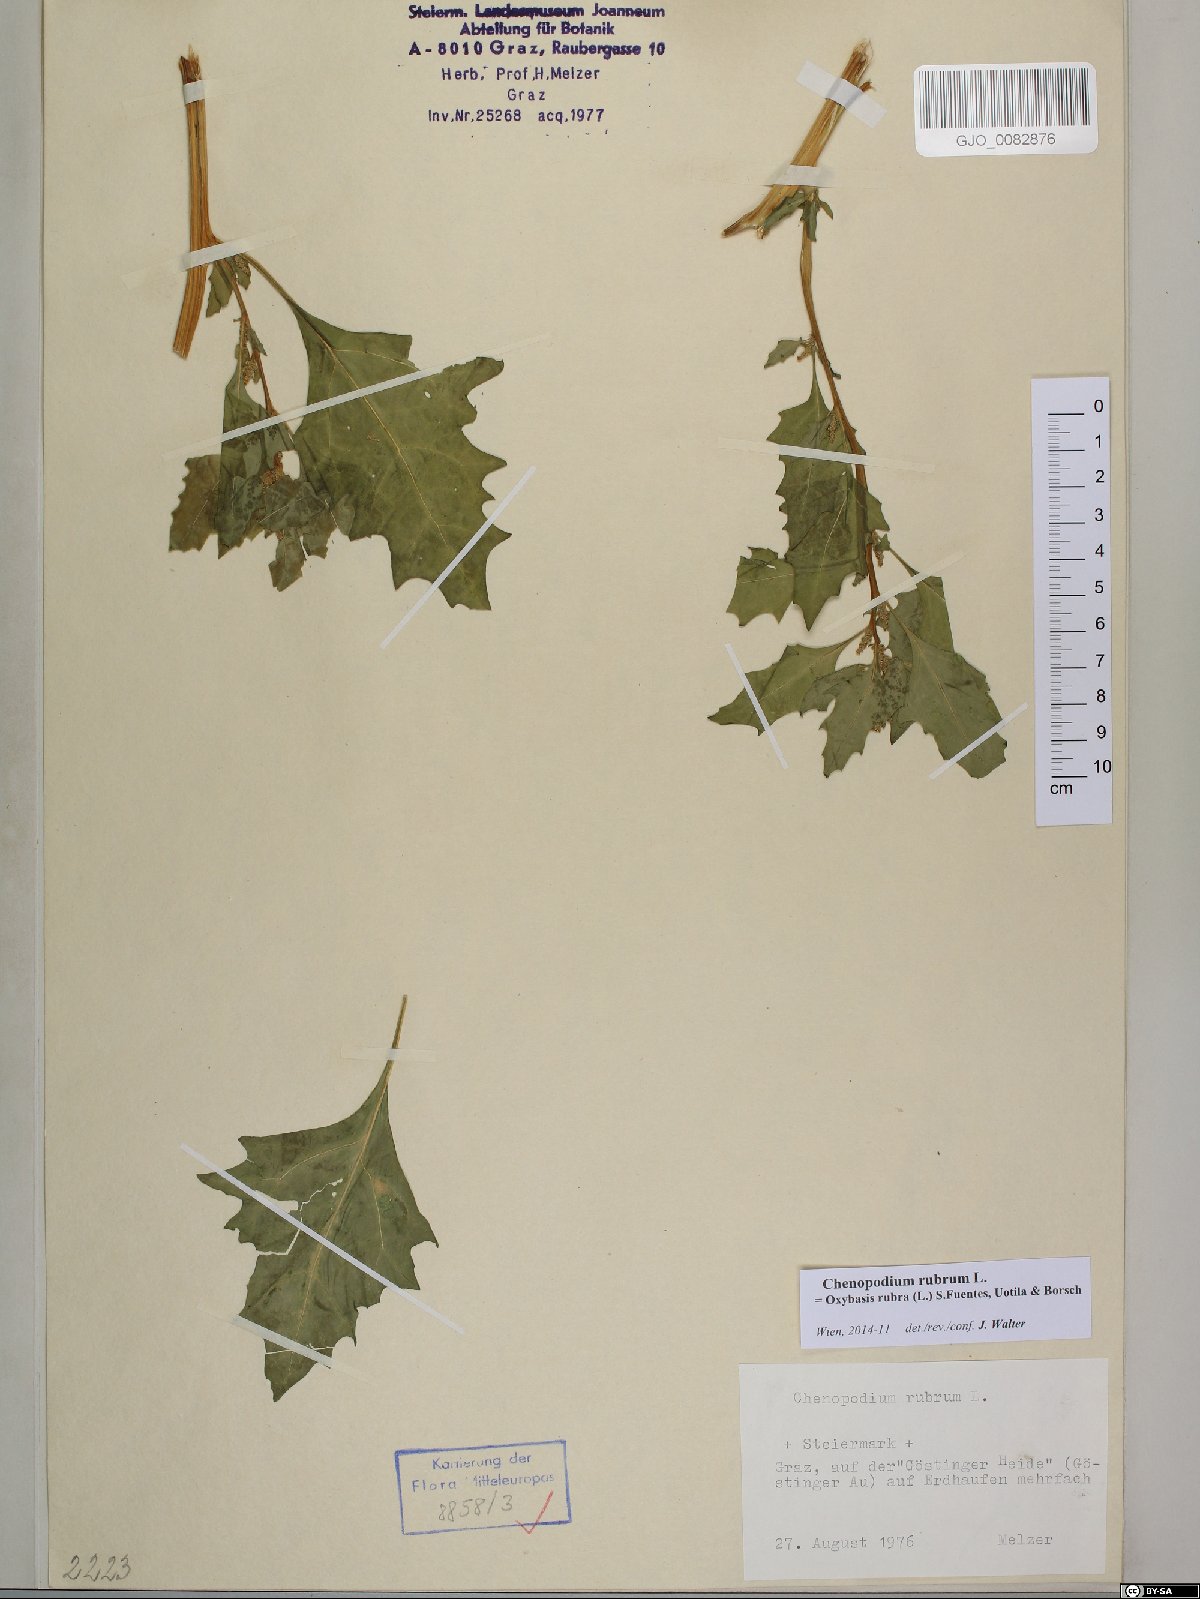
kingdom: Plantae
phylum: Tracheophyta
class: Magnoliopsida
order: Caryophyllales
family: Amaranthaceae
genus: Oxybasis
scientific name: Oxybasis rubra
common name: Red goosefoot
